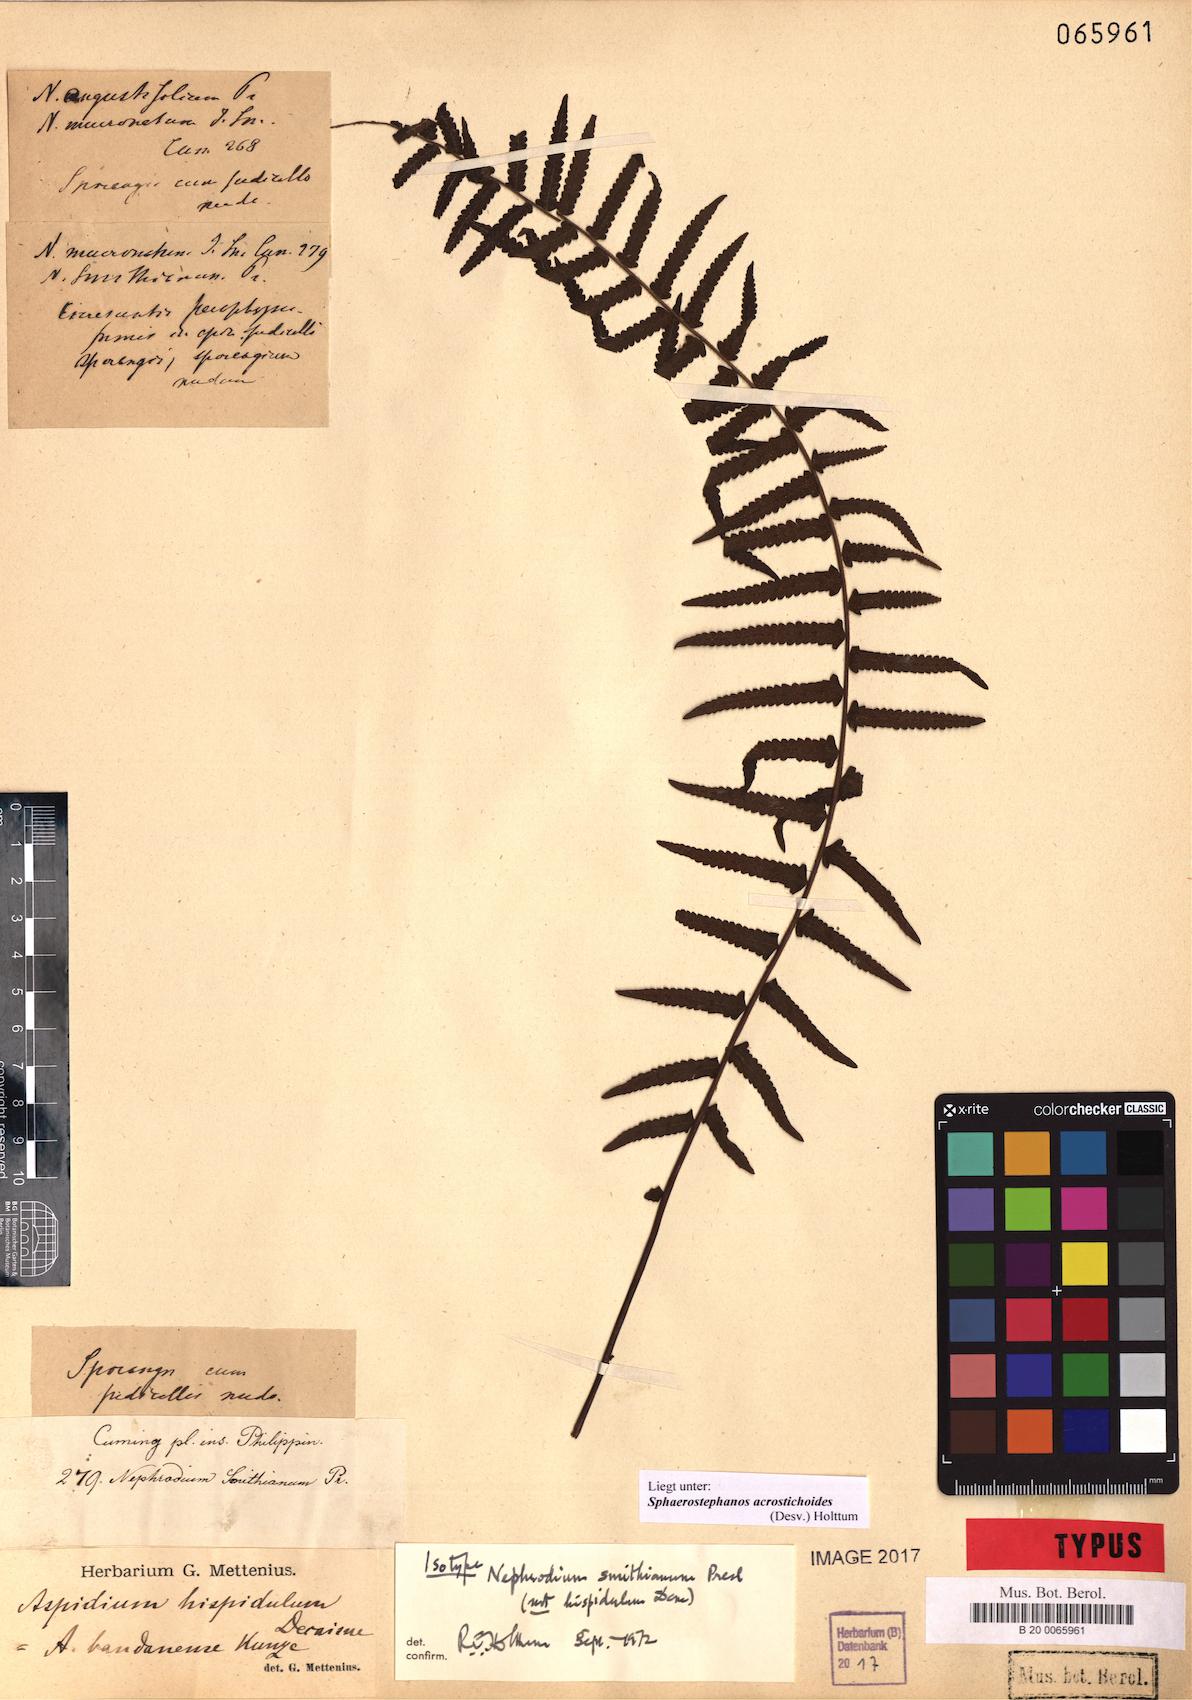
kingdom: Plantae
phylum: Tracheophyta
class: Polypodiopsida
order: Polypodiales
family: Thelypteridaceae
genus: Sphaerostephanos
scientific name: Sphaerostephanos acrostichoides
